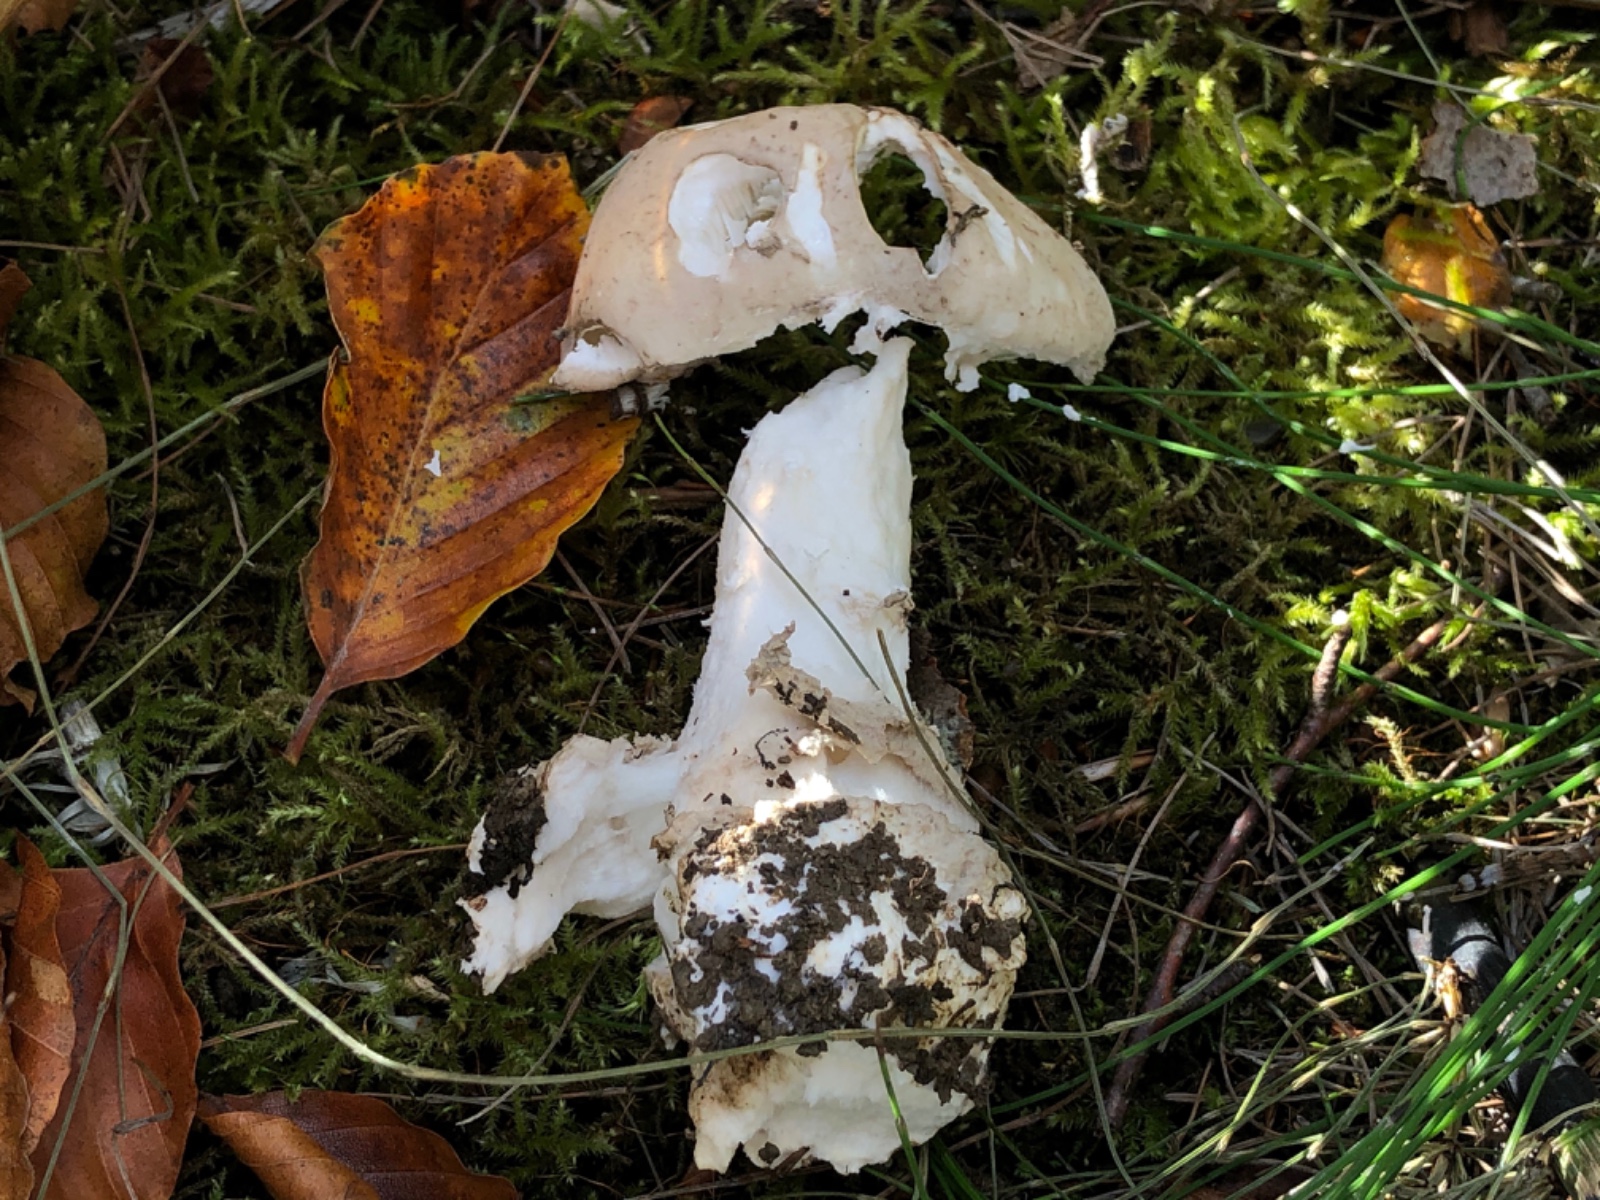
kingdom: Fungi
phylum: Basidiomycota
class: Agaricomycetes
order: Agaricales
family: Amanitaceae
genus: Amanita
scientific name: Amanita
